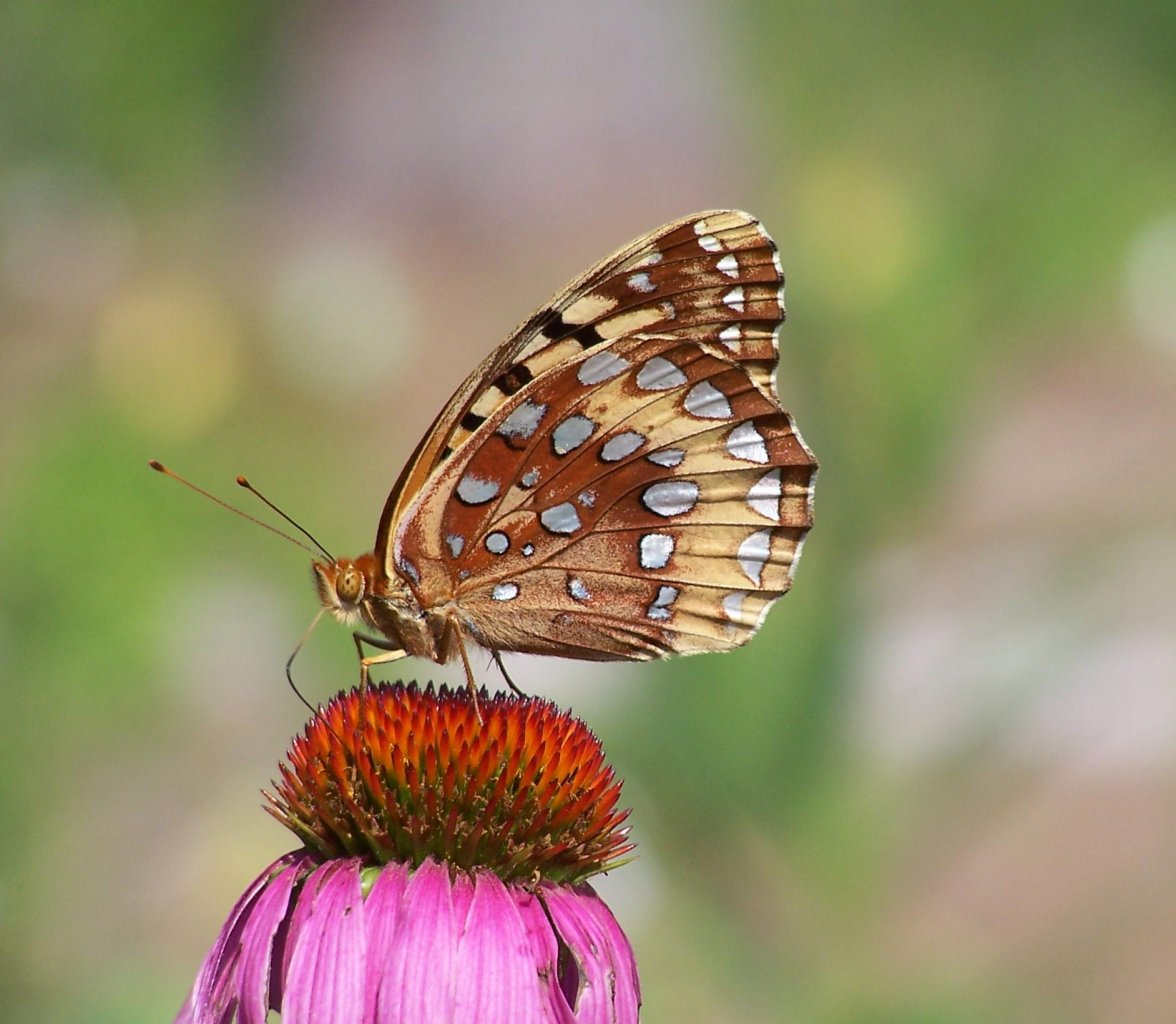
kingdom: Animalia
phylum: Arthropoda
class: Insecta
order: Lepidoptera
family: Nymphalidae
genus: Speyeria
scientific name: Speyeria cybele
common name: Great Spangled Fritillary
